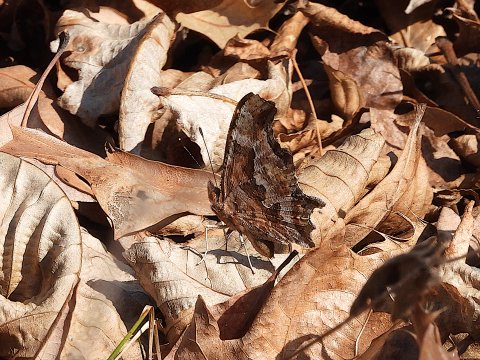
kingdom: Animalia
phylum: Arthropoda
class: Insecta
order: Lepidoptera
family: Nymphalidae
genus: Polygonia
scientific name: Polygonia comma
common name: Eastern Comma
